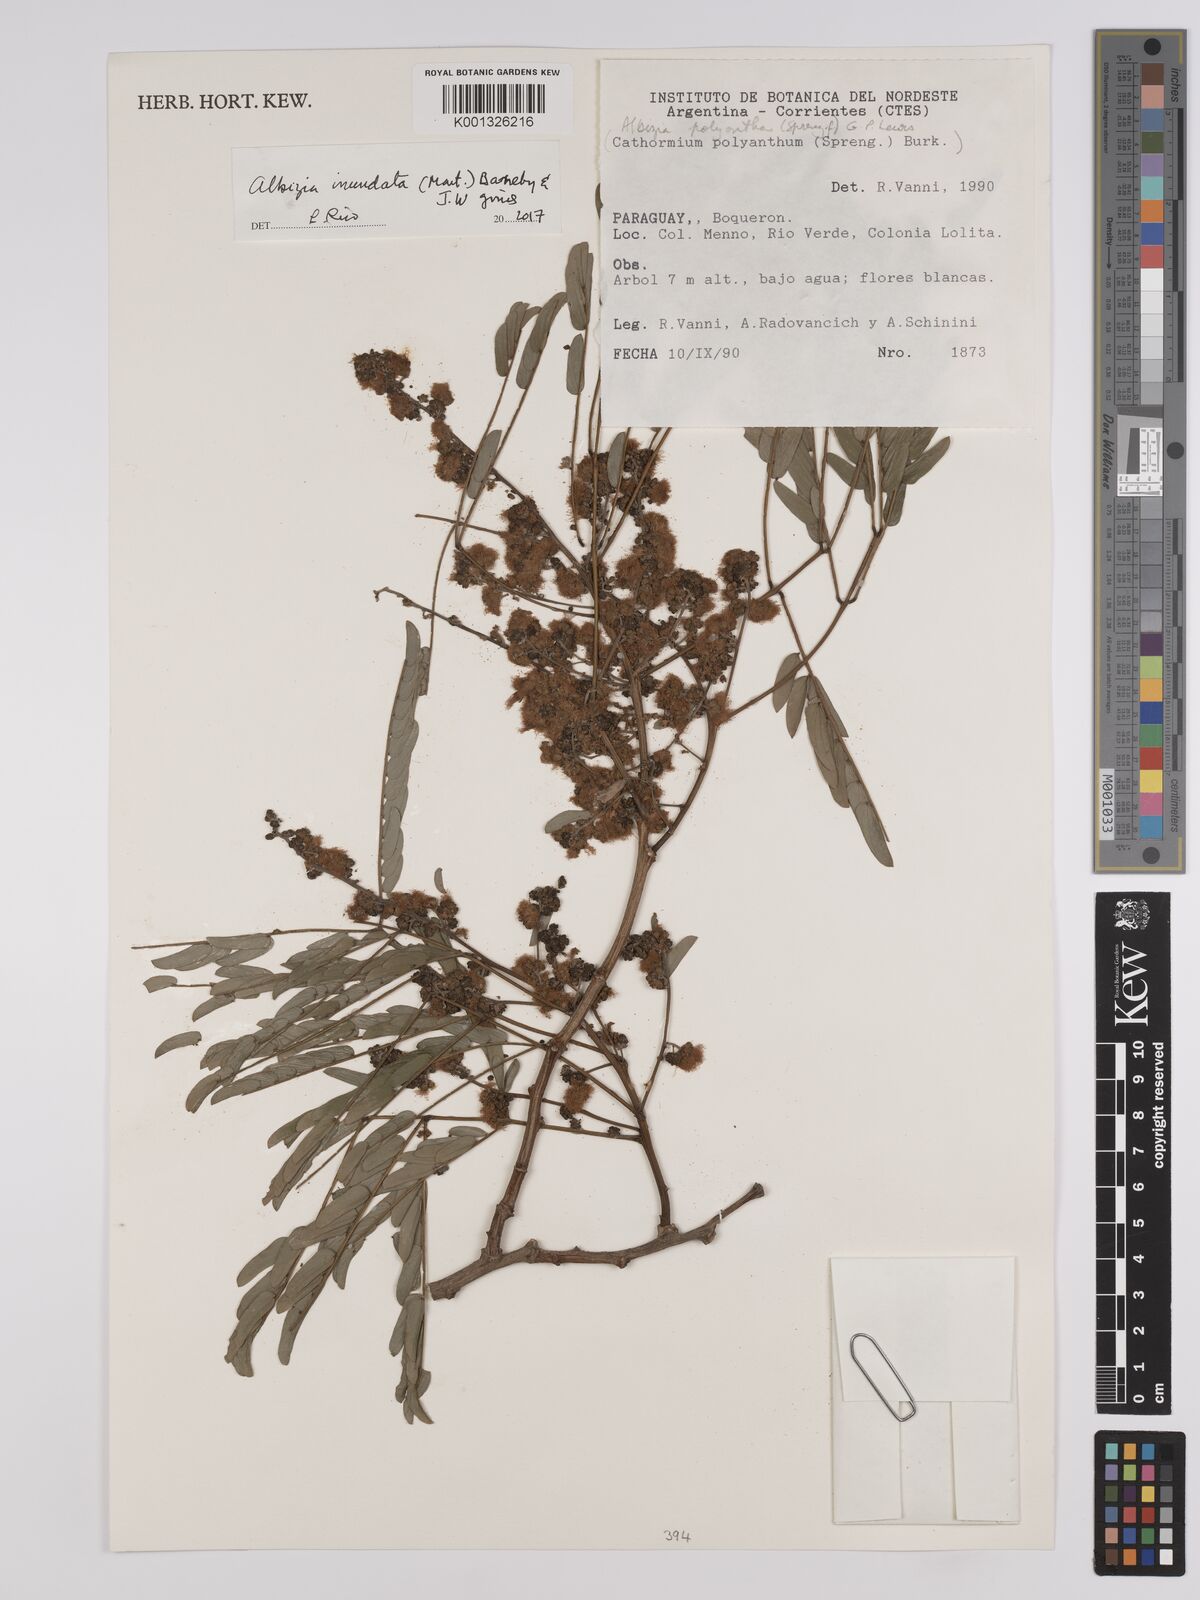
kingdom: Plantae
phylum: Tracheophyta
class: Magnoliopsida
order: Fabales
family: Fabaceae
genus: Albizia
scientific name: Albizia inundata
